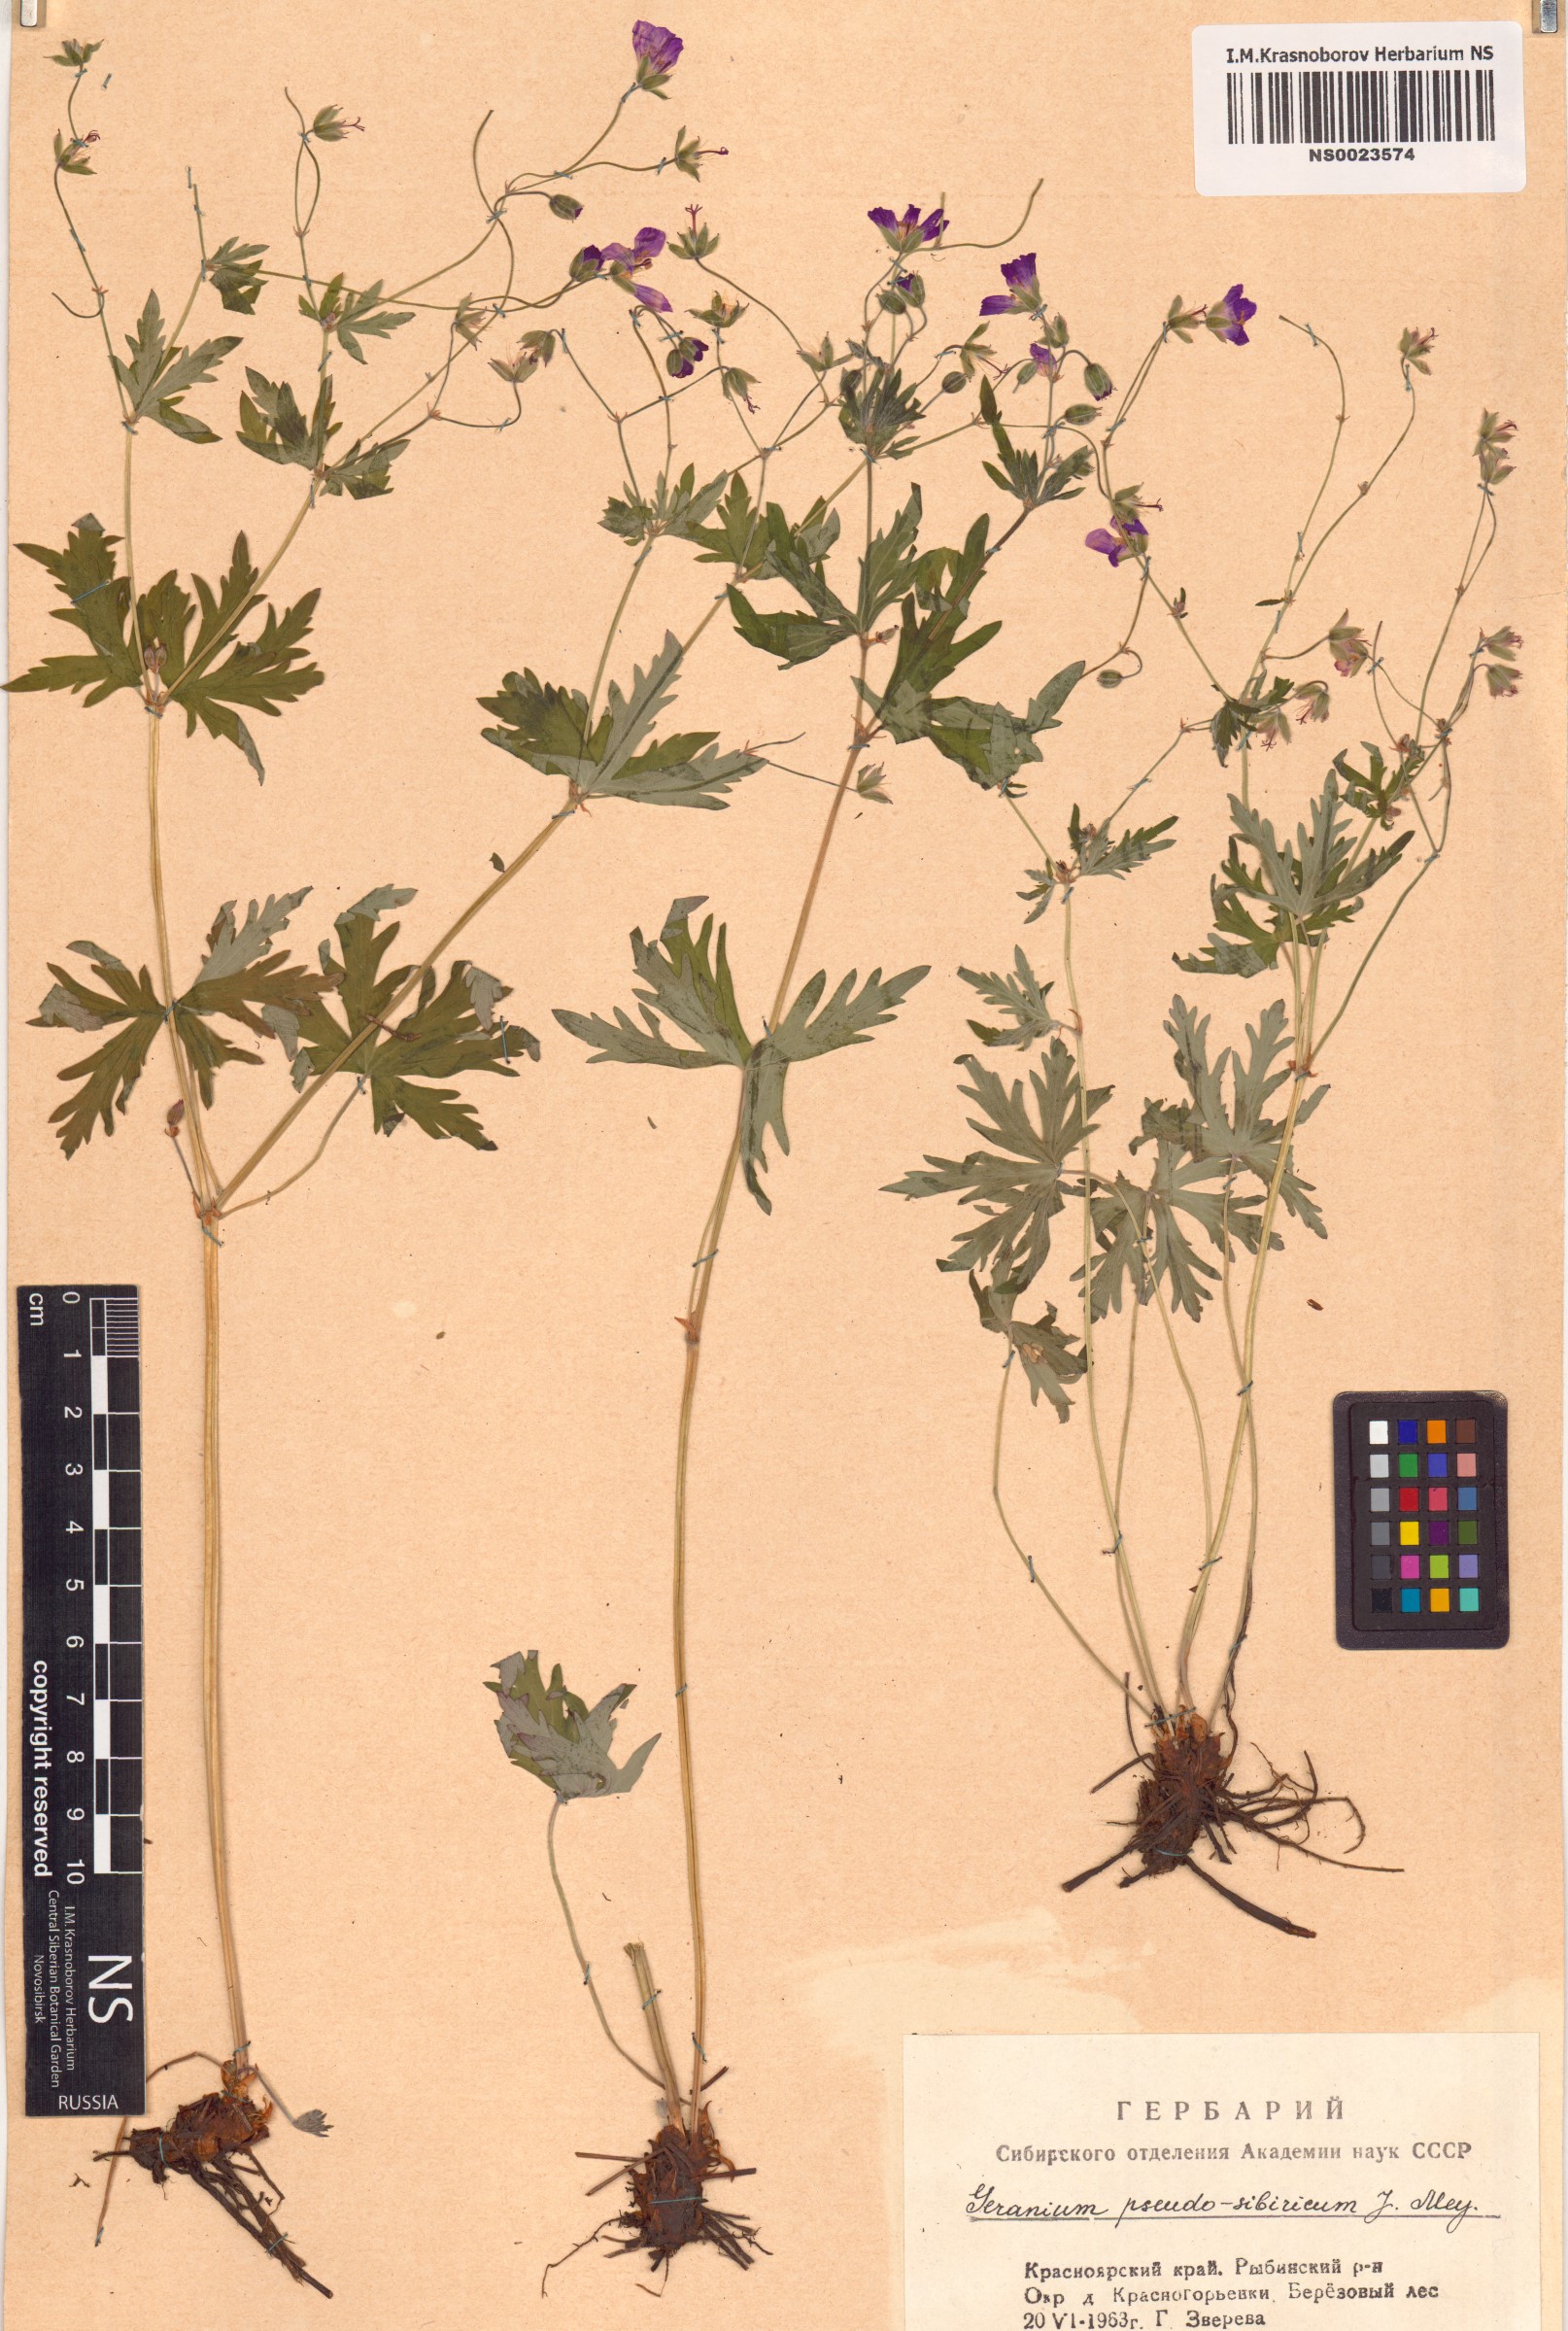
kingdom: Plantae
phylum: Tracheophyta
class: Magnoliopsida
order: Geraniales
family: Geraniaceae
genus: Geranium
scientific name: Geranium pseudosibiricum
